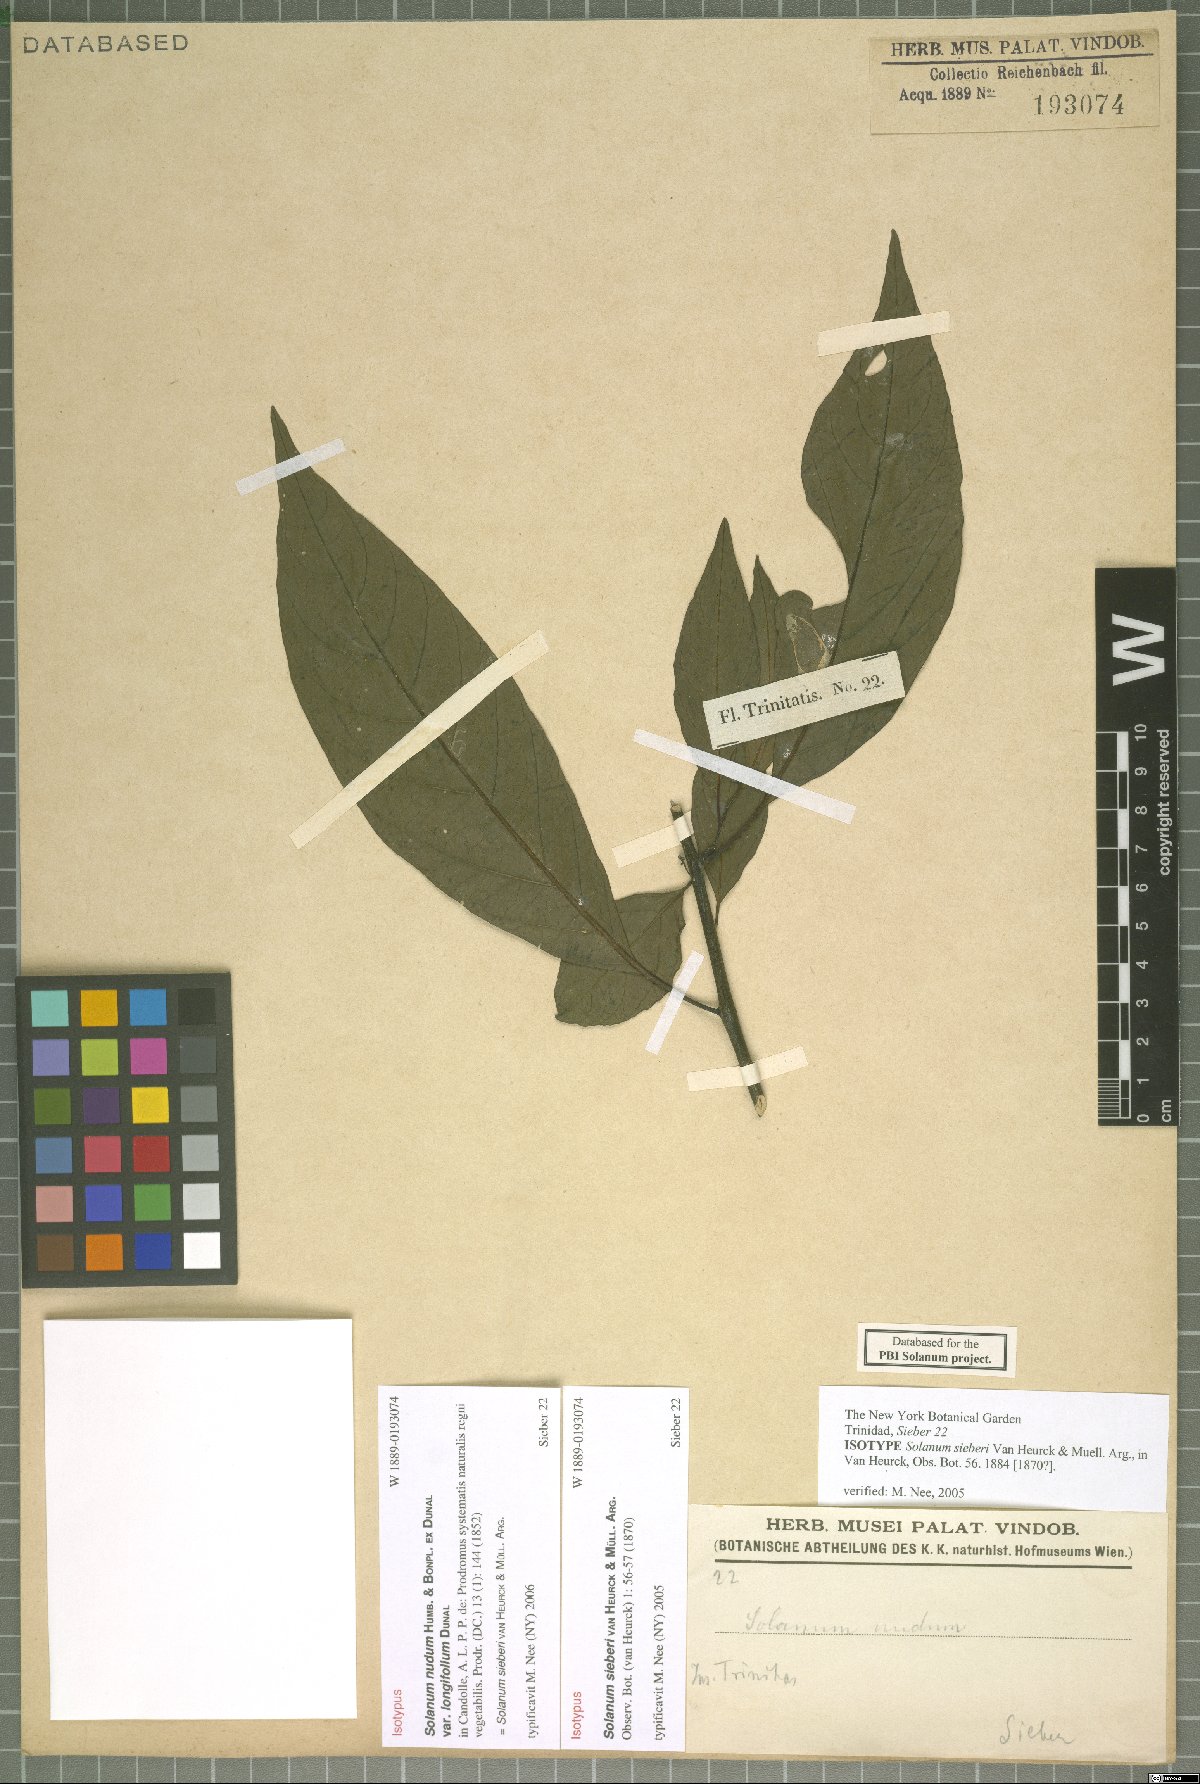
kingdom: Plantae
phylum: Tracheophyta
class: Magnoliopsida
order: Solanales
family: Solanaceae
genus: Solanum
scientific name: Solanum sieberi
